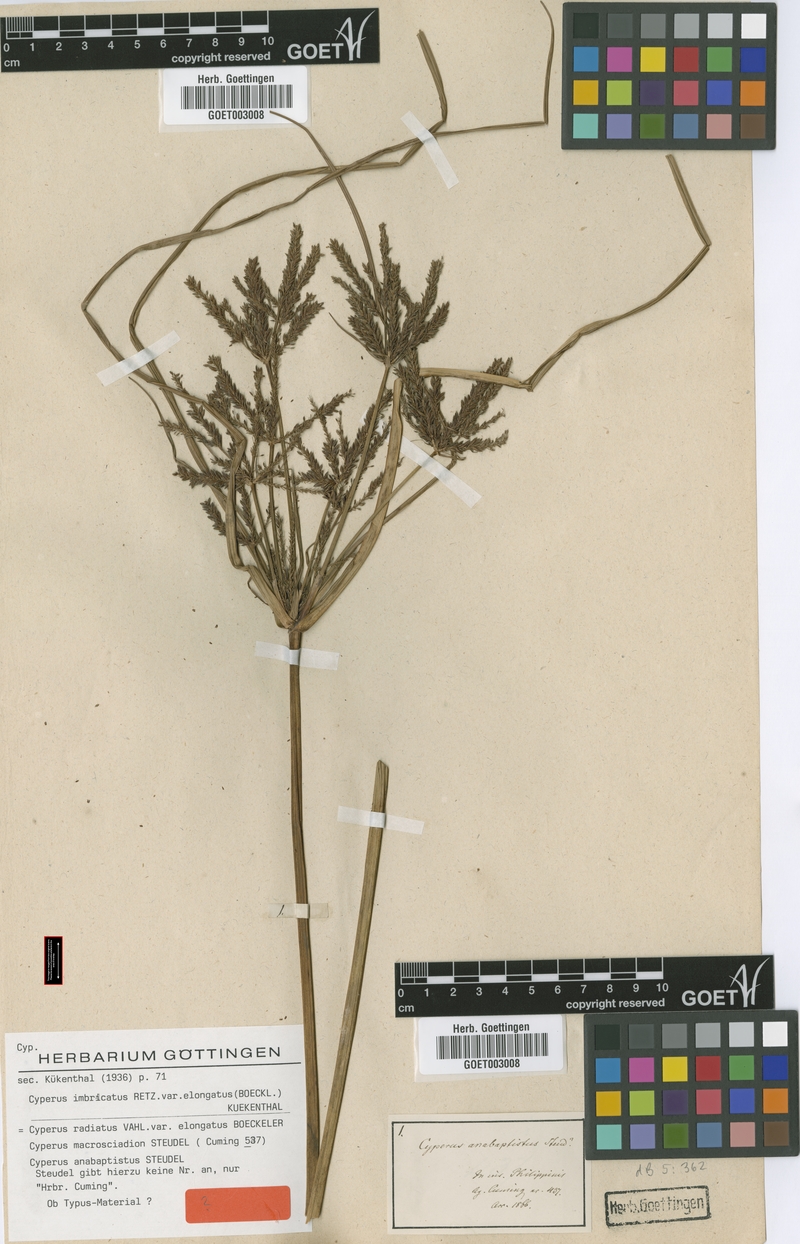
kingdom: Plantae
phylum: Tracheophyta
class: Liliopsida
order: Poales
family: Cyperaceae
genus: Cyperus
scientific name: Cyperus imbricatus
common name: Shingle flatsedge
